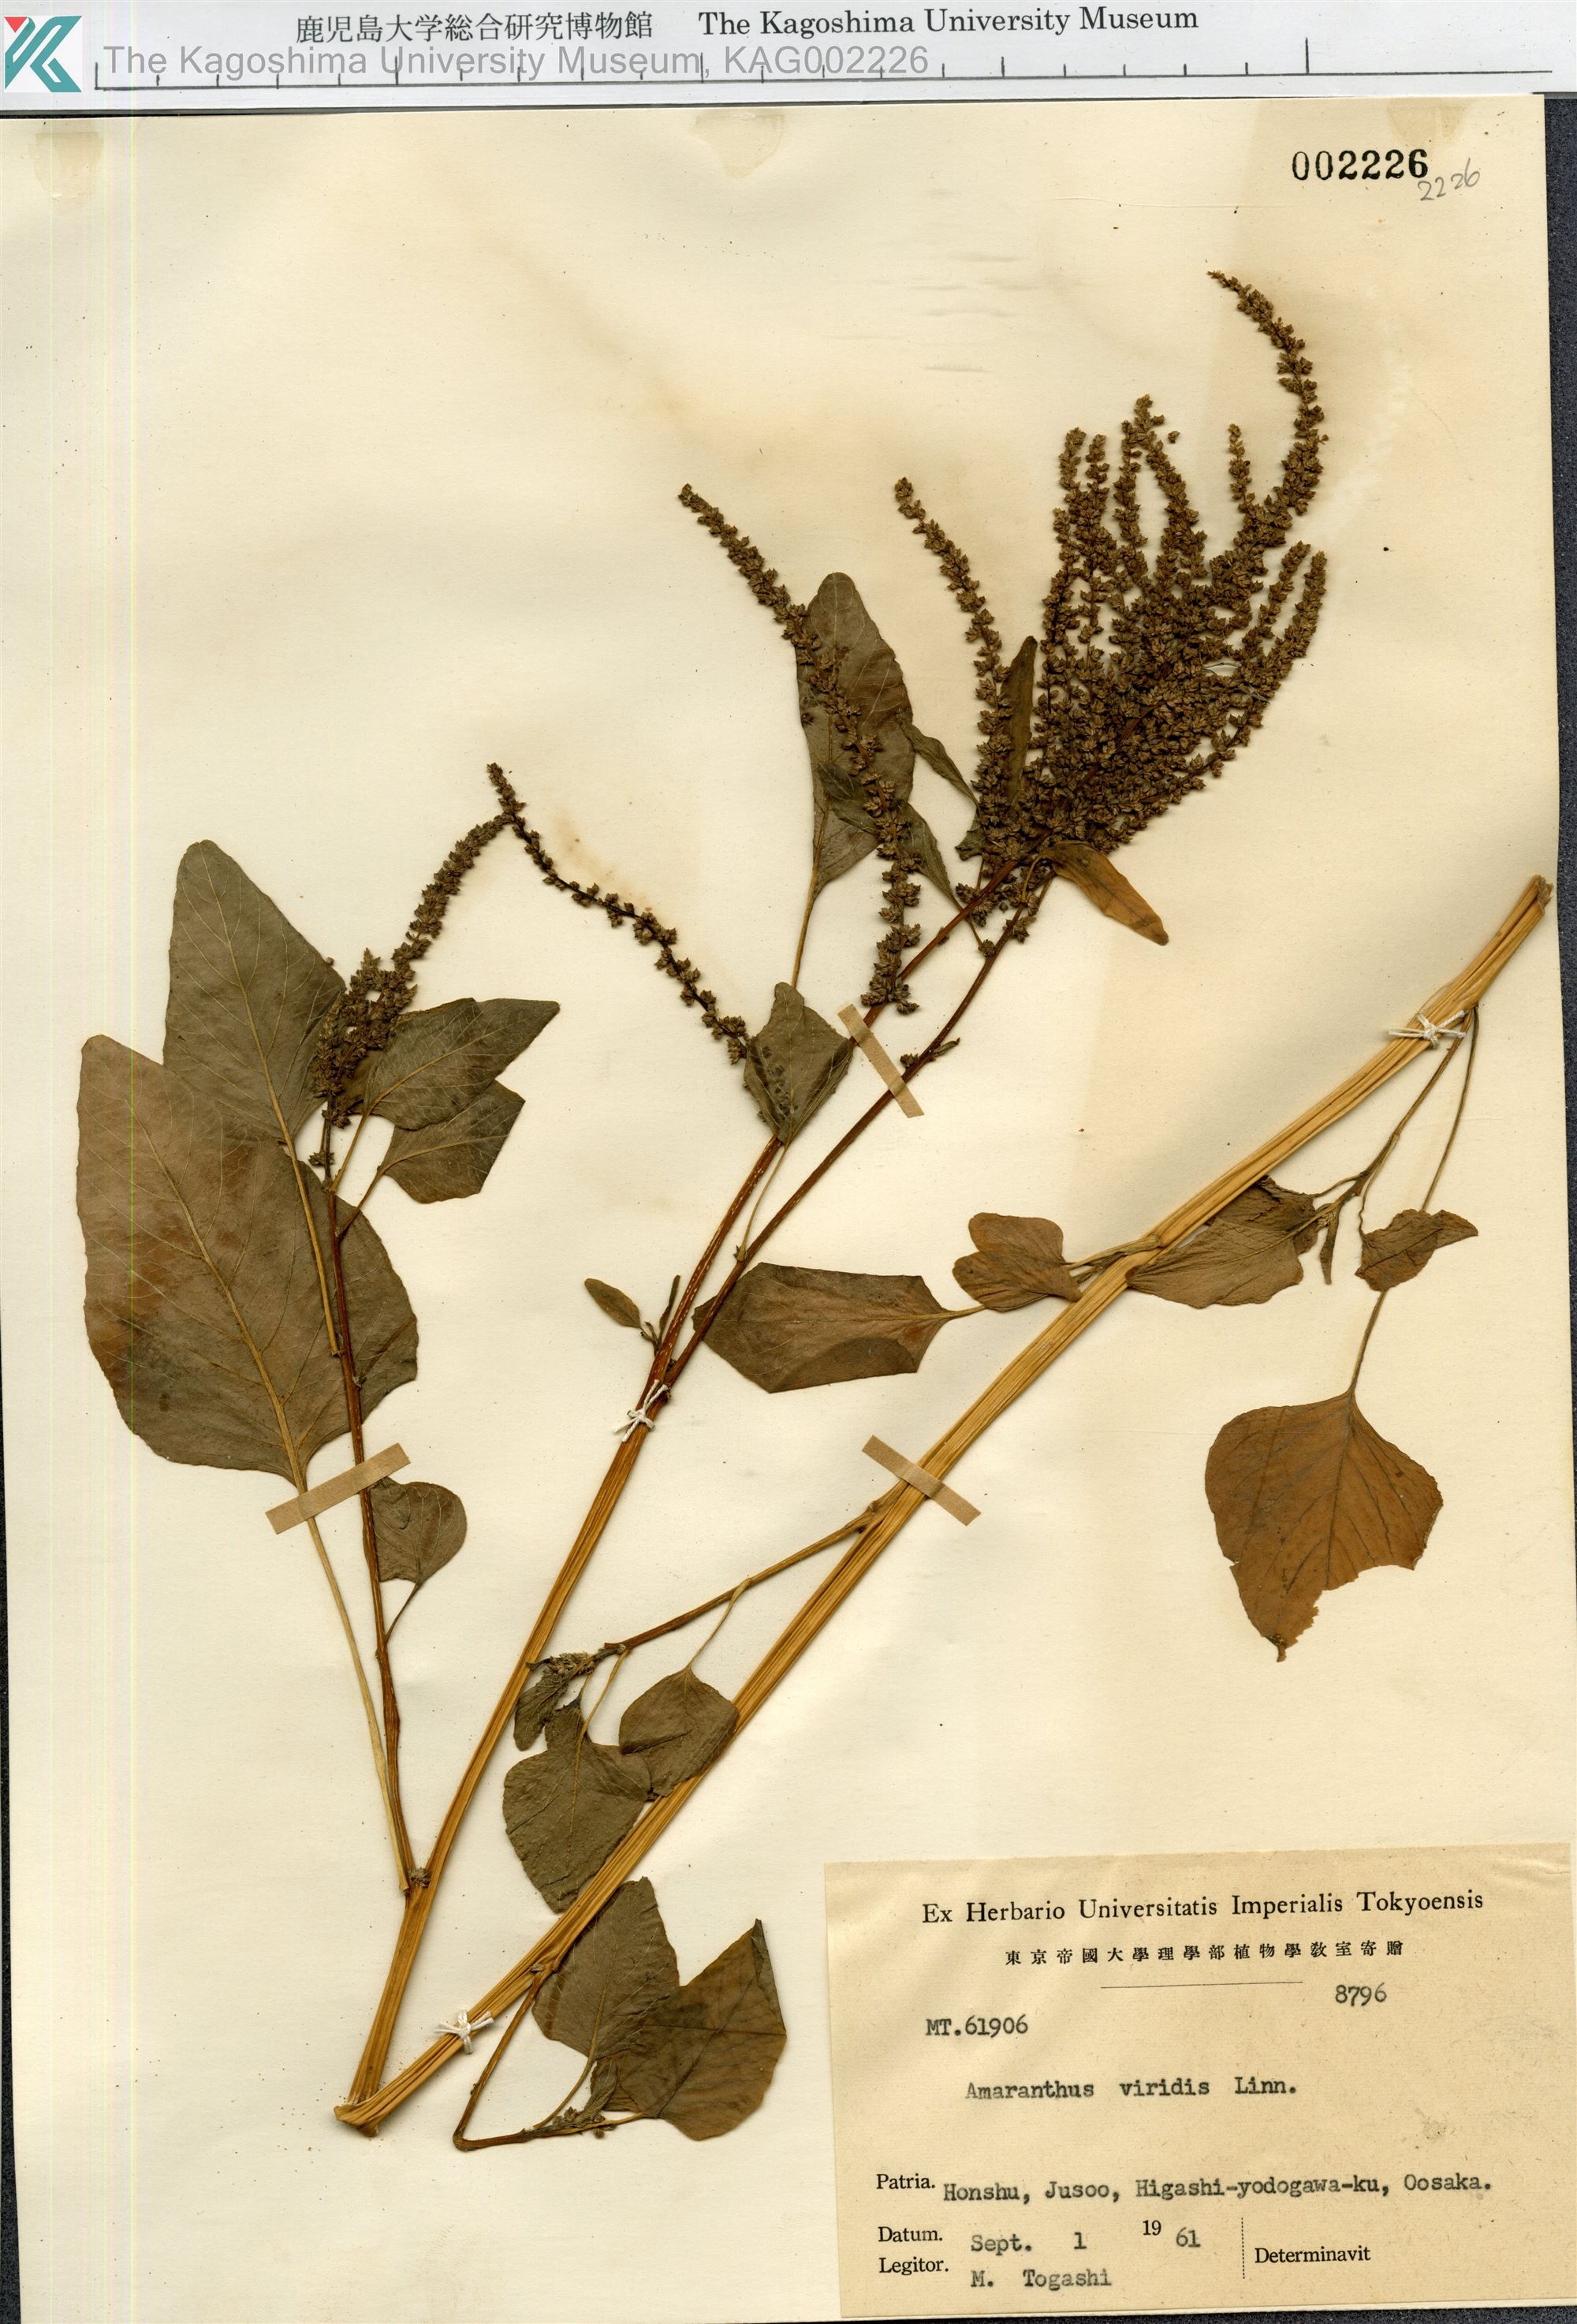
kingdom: Plantae
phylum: Tracheophyta
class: Magnoliopsida
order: Caryophyllales
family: Amaranthaceae
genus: Amaranthus
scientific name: Amaranthus viridis
